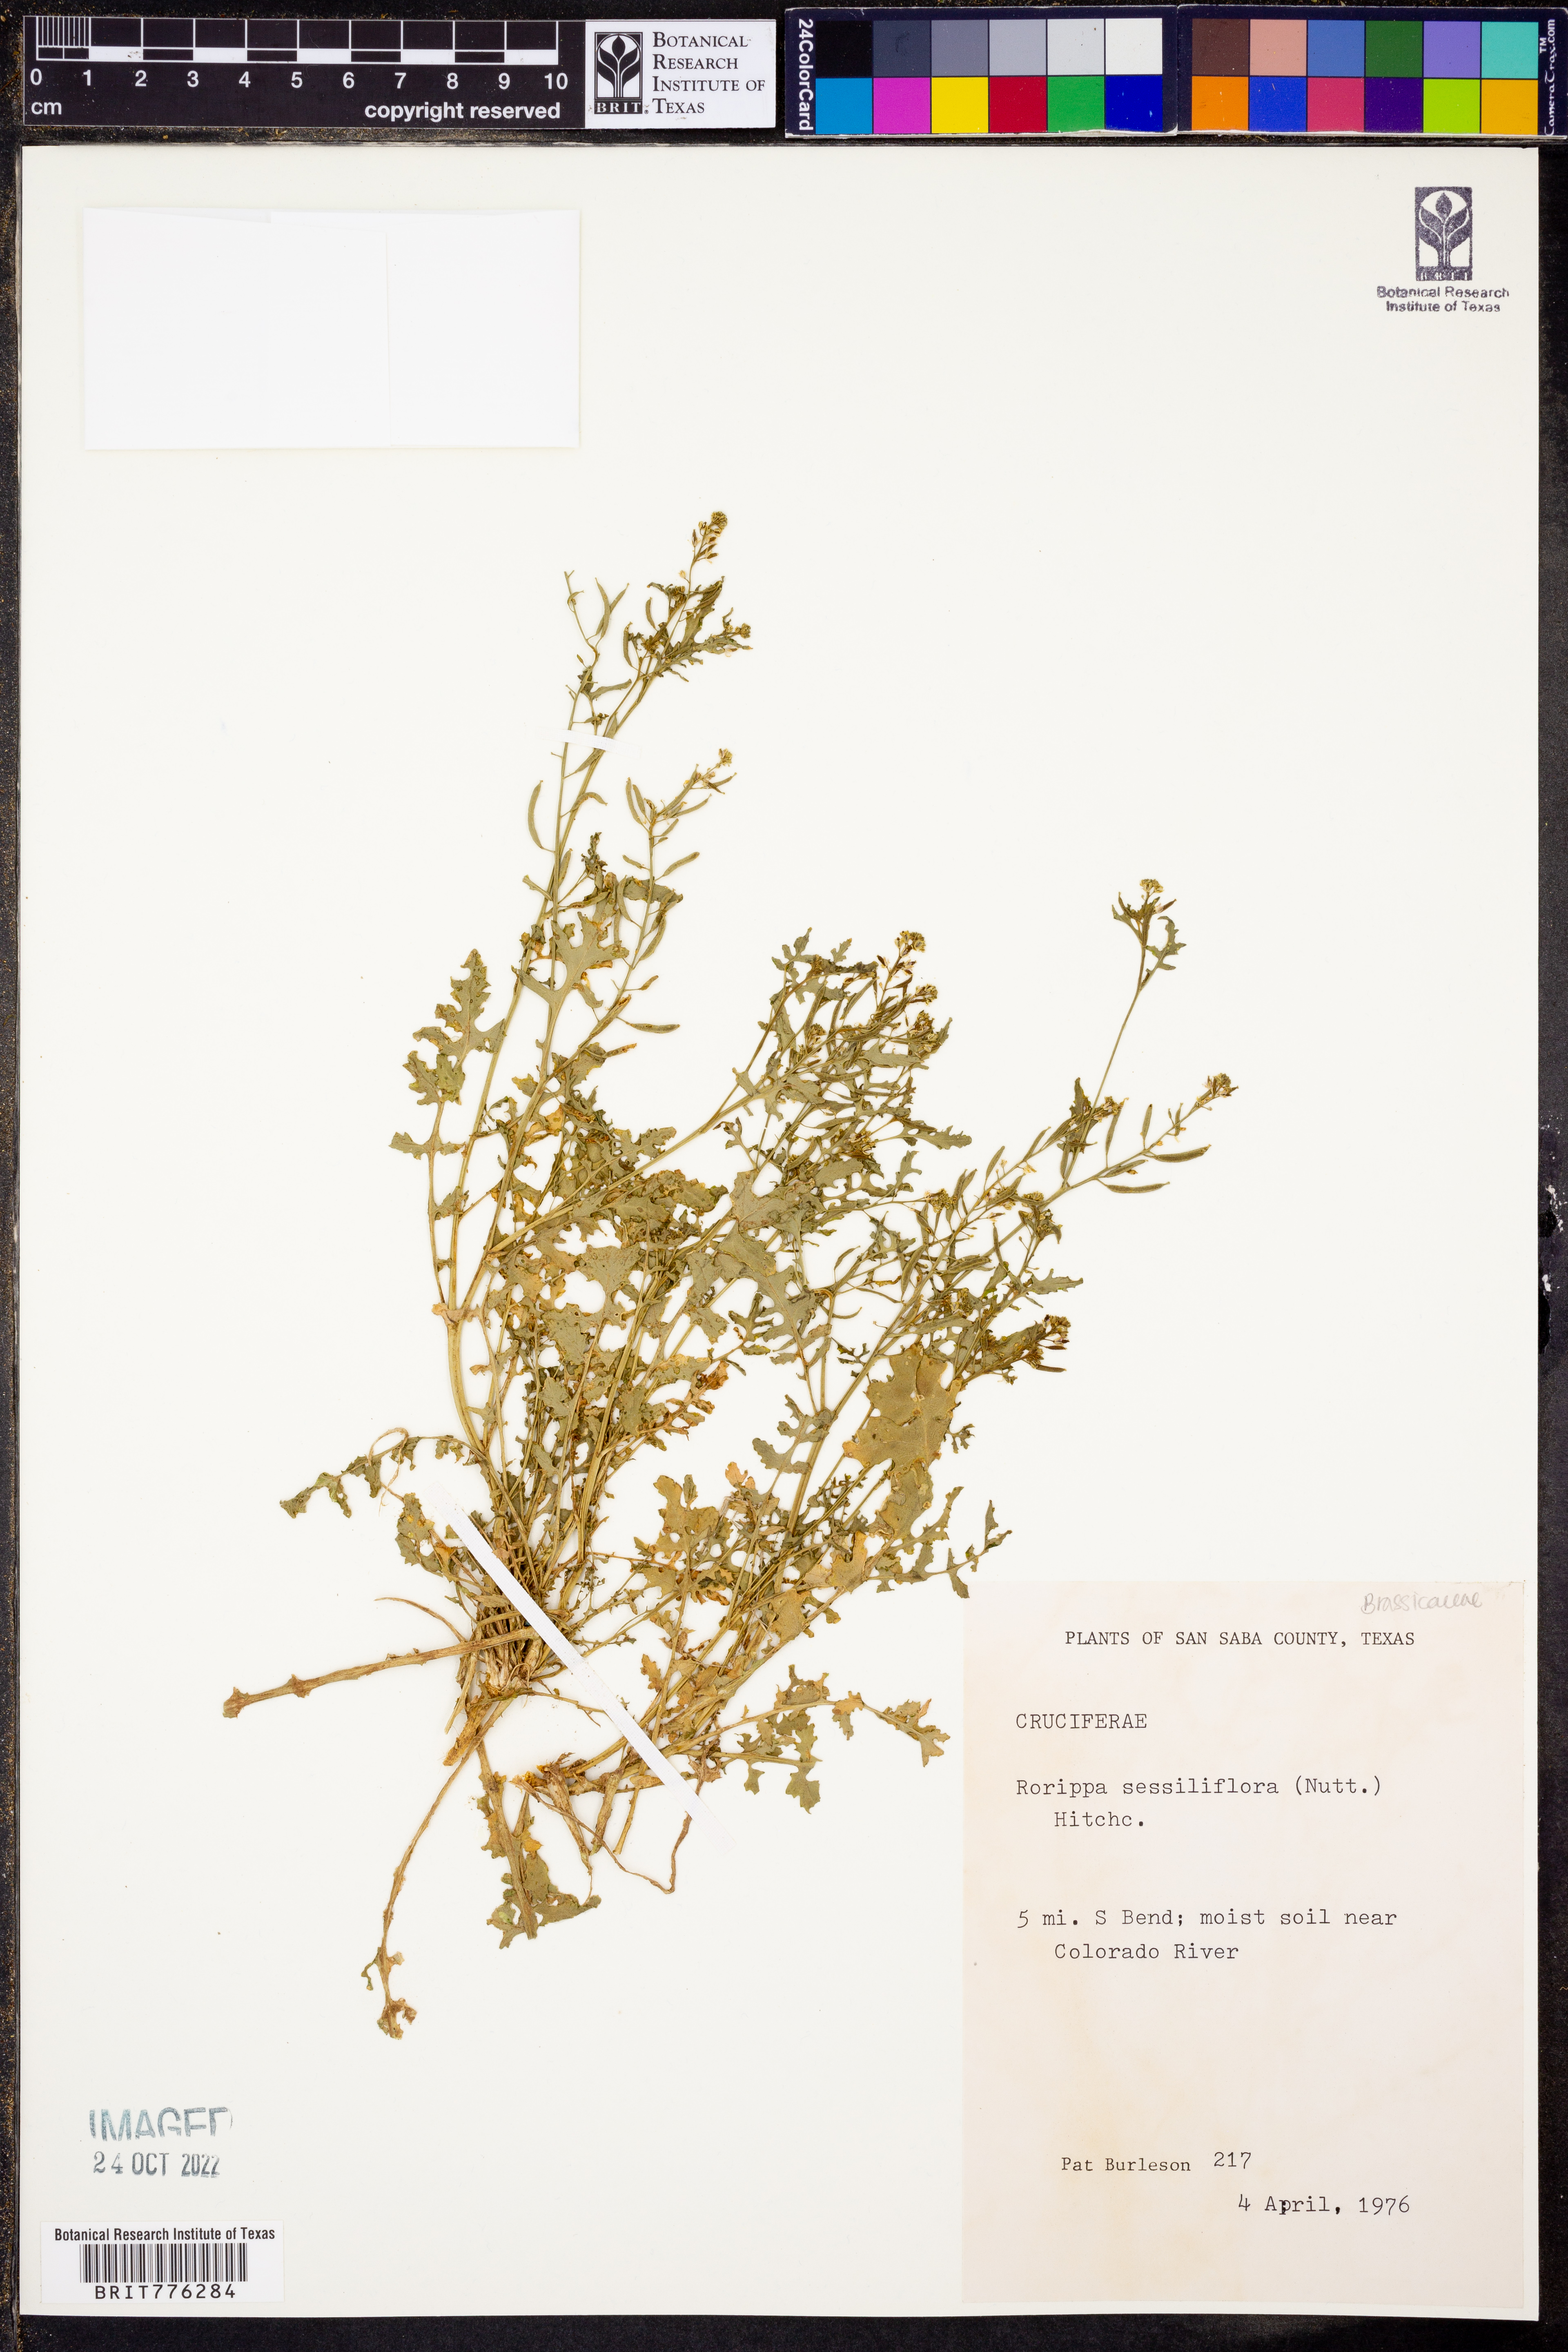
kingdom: Plantae
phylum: Tracheophyta
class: Magnoliopsida
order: Brassicales
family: Brassicaceae
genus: Rorippa
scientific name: Rorippa sessiliflora
